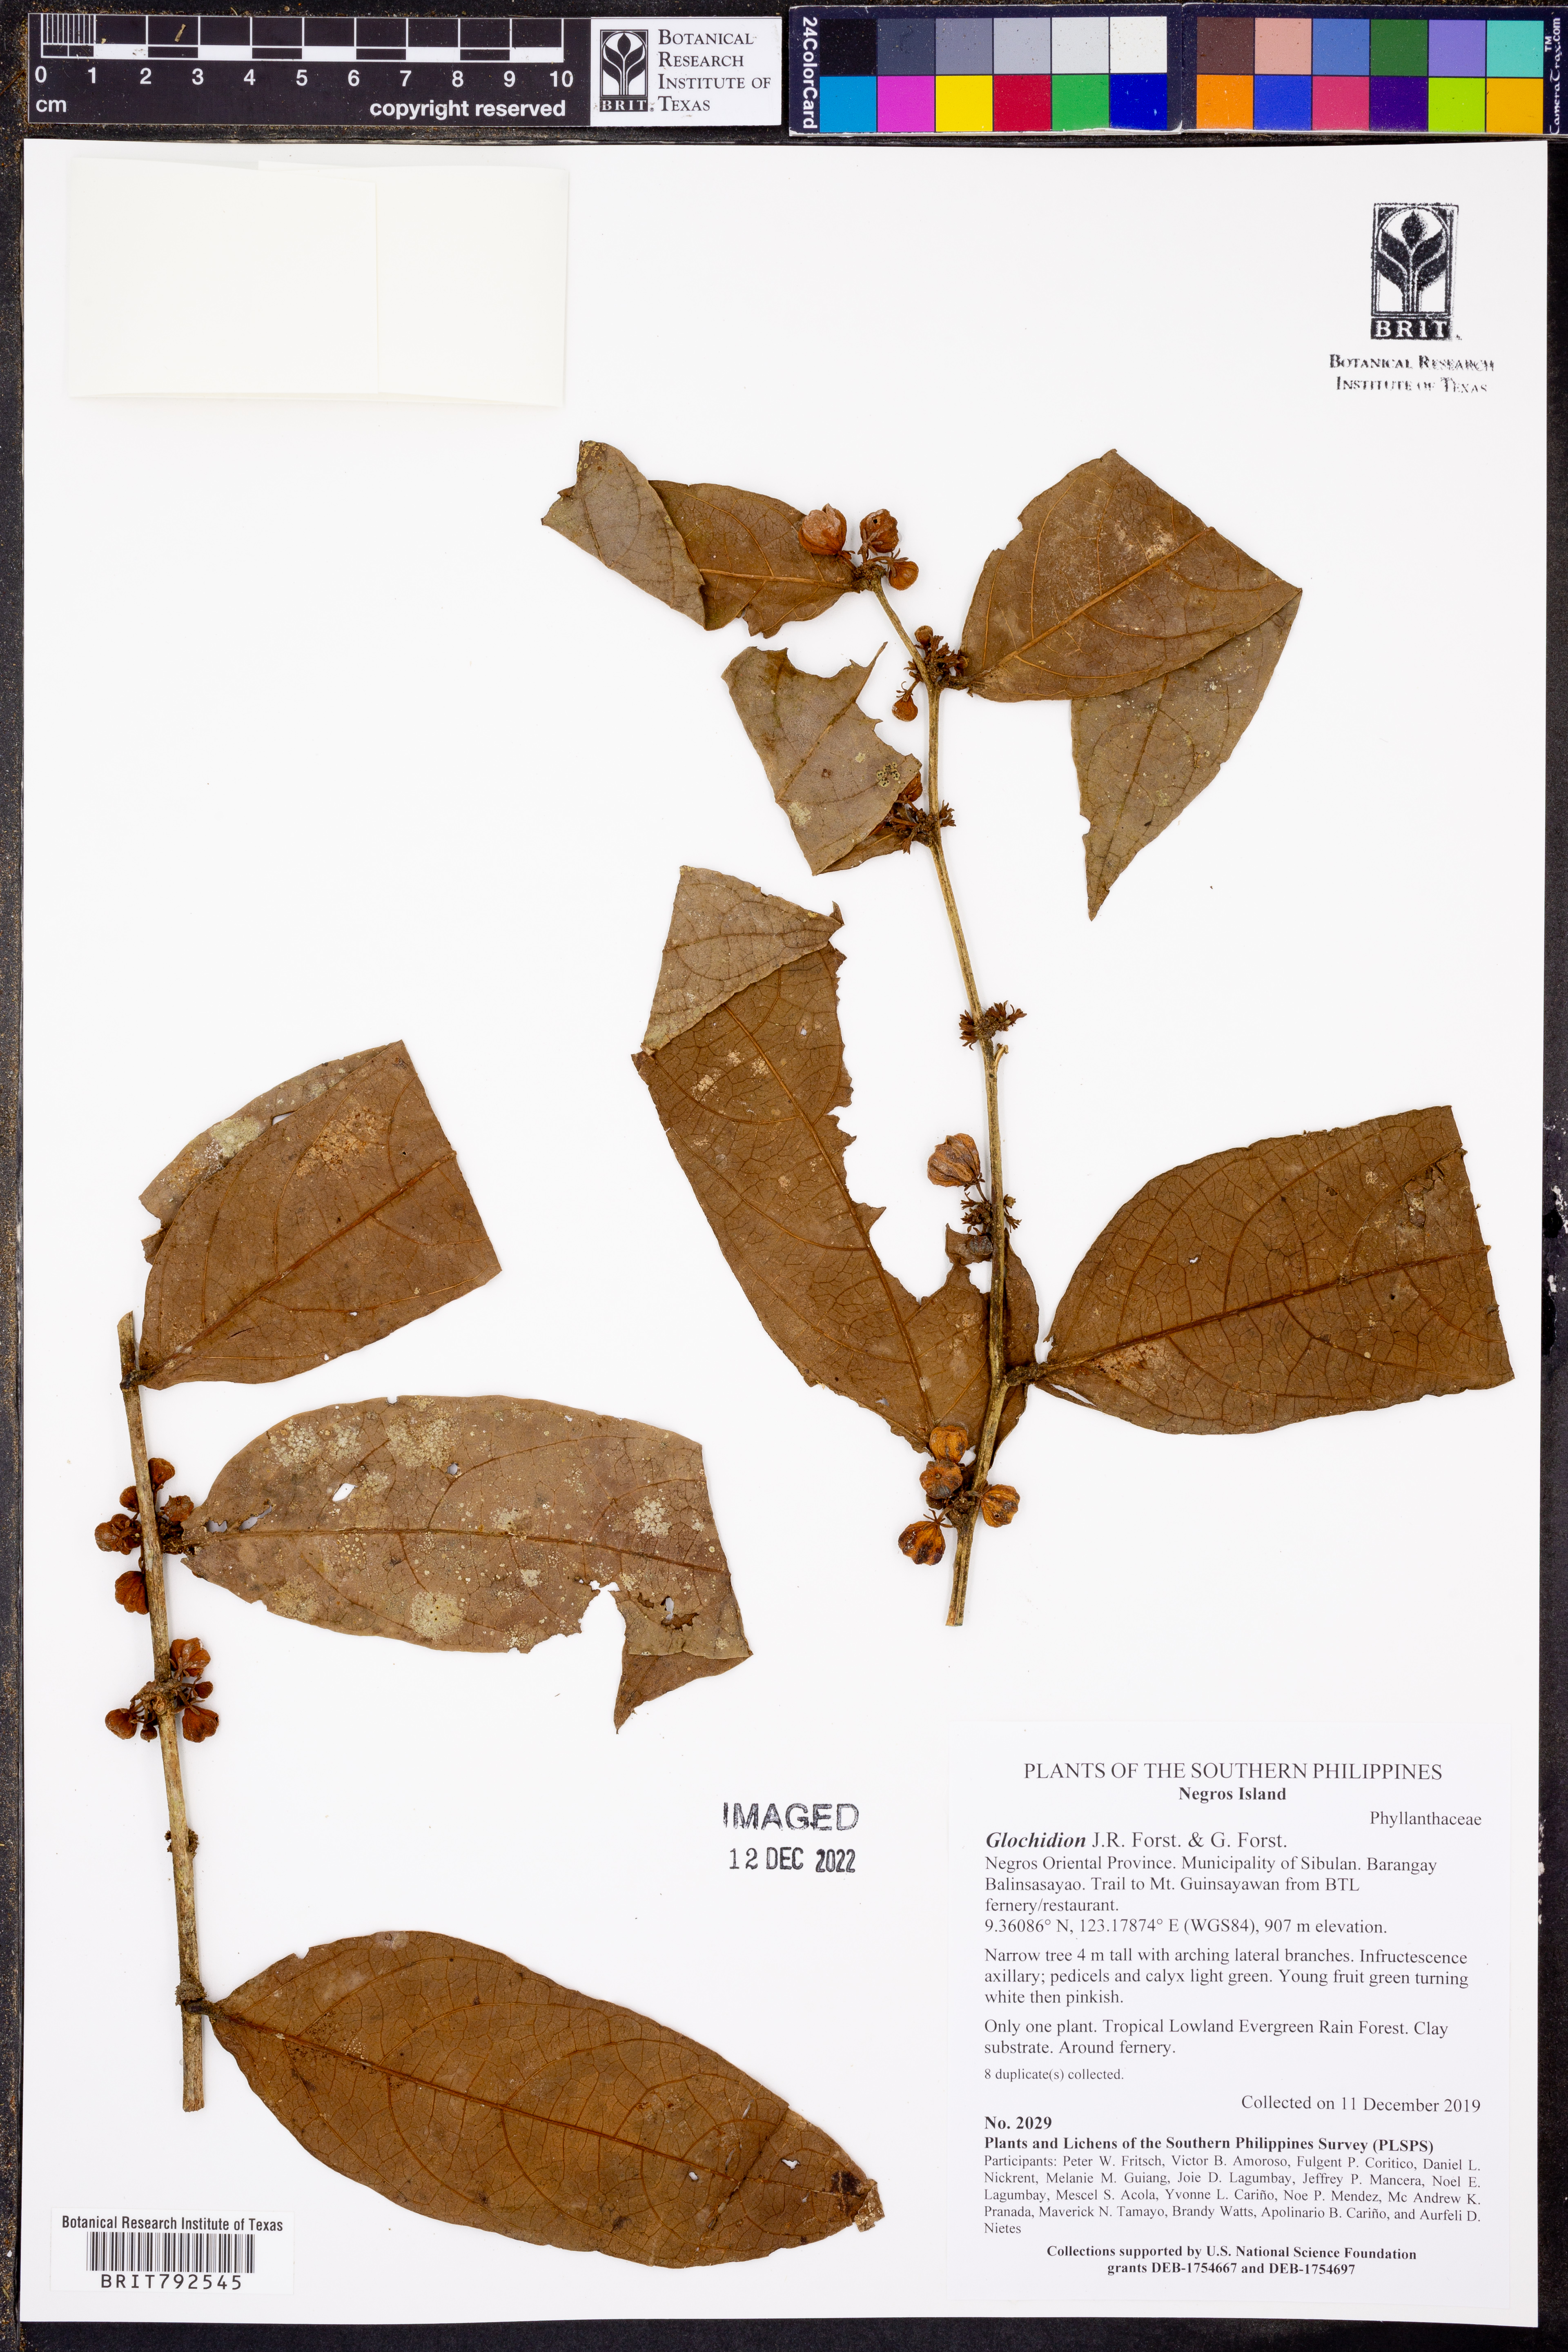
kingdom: Plantae
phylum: Tracheophyta
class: Magnoliopsida
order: Malpighiales
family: Phyllanthaceae
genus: Glochidion
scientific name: Glochidion
